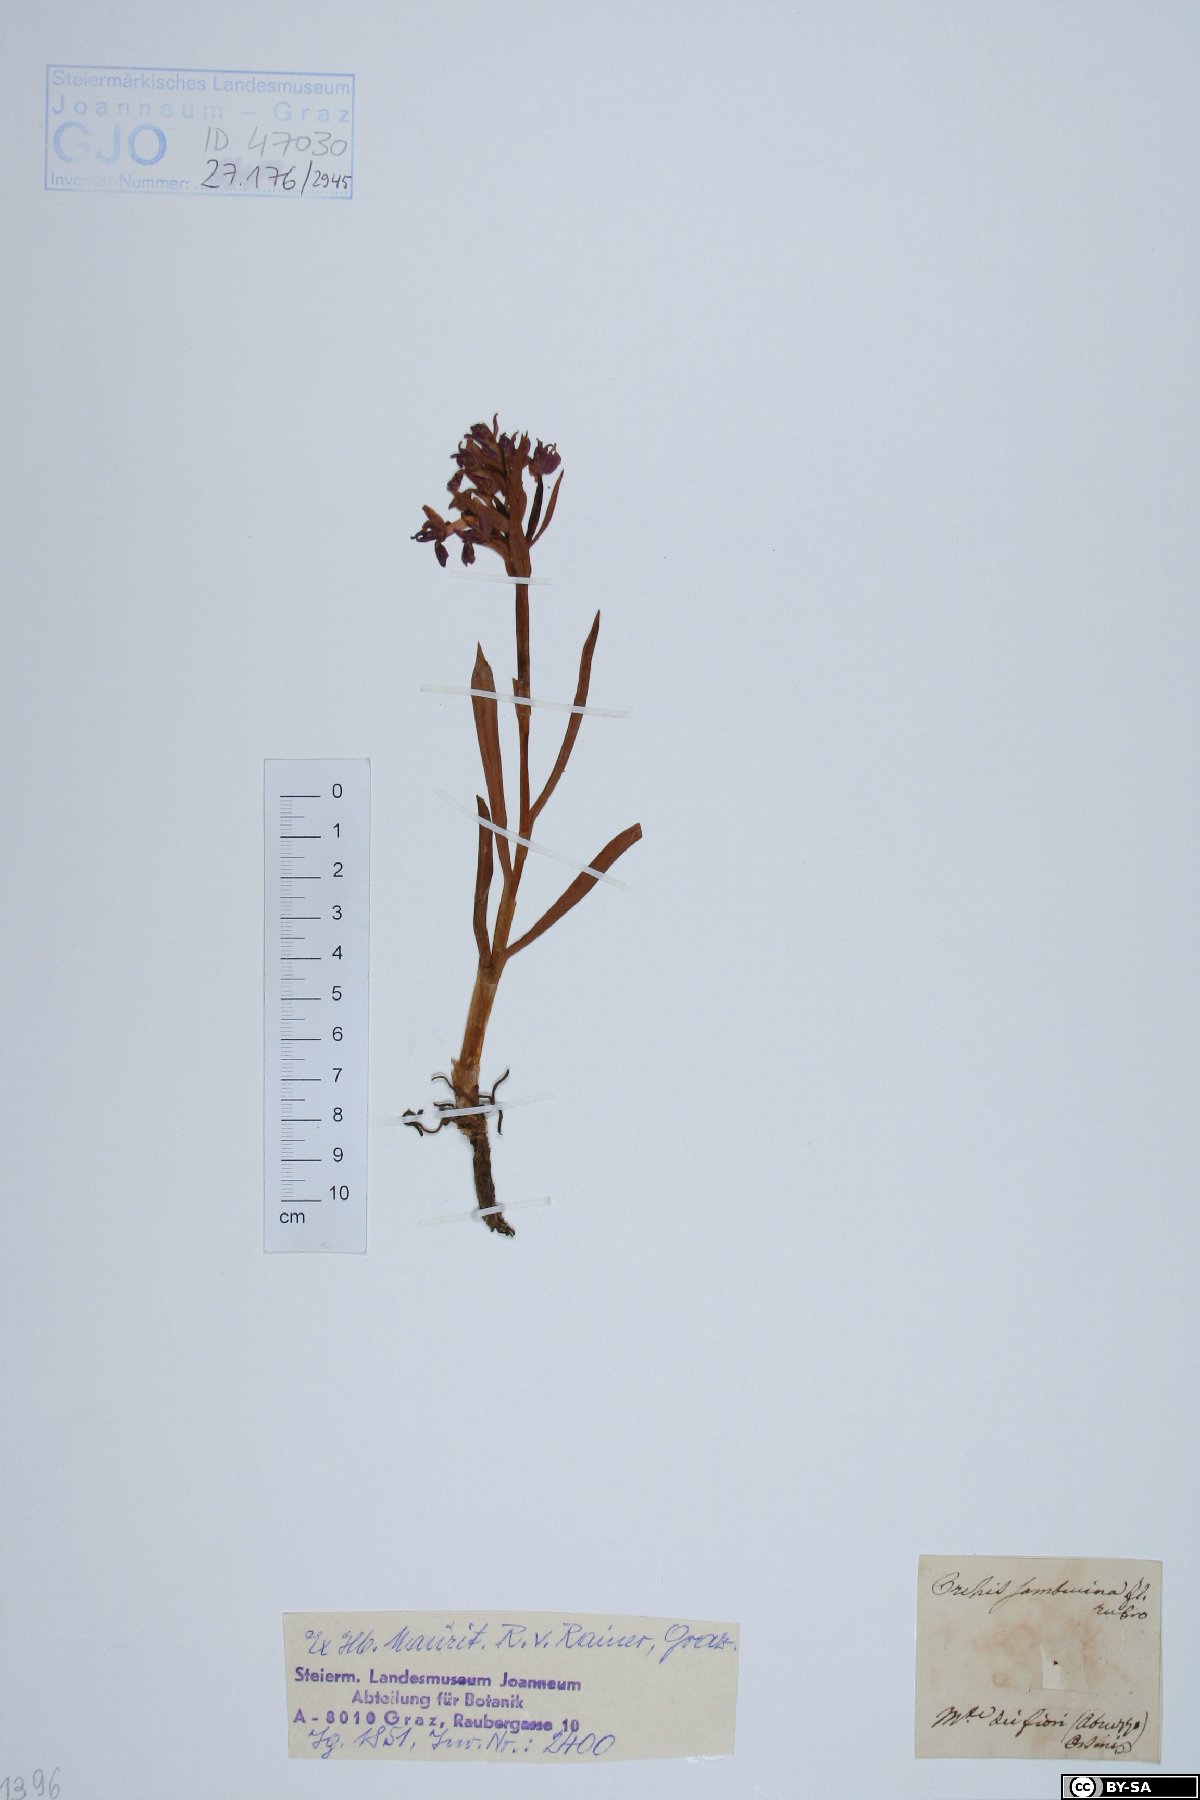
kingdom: Plantae
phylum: Tracheophyta
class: Liliopsida
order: Asparagales
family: Orchidaceae
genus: Dactylorhiza
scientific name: Dactylorhiza sambucina
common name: Elder-flowered orchid
